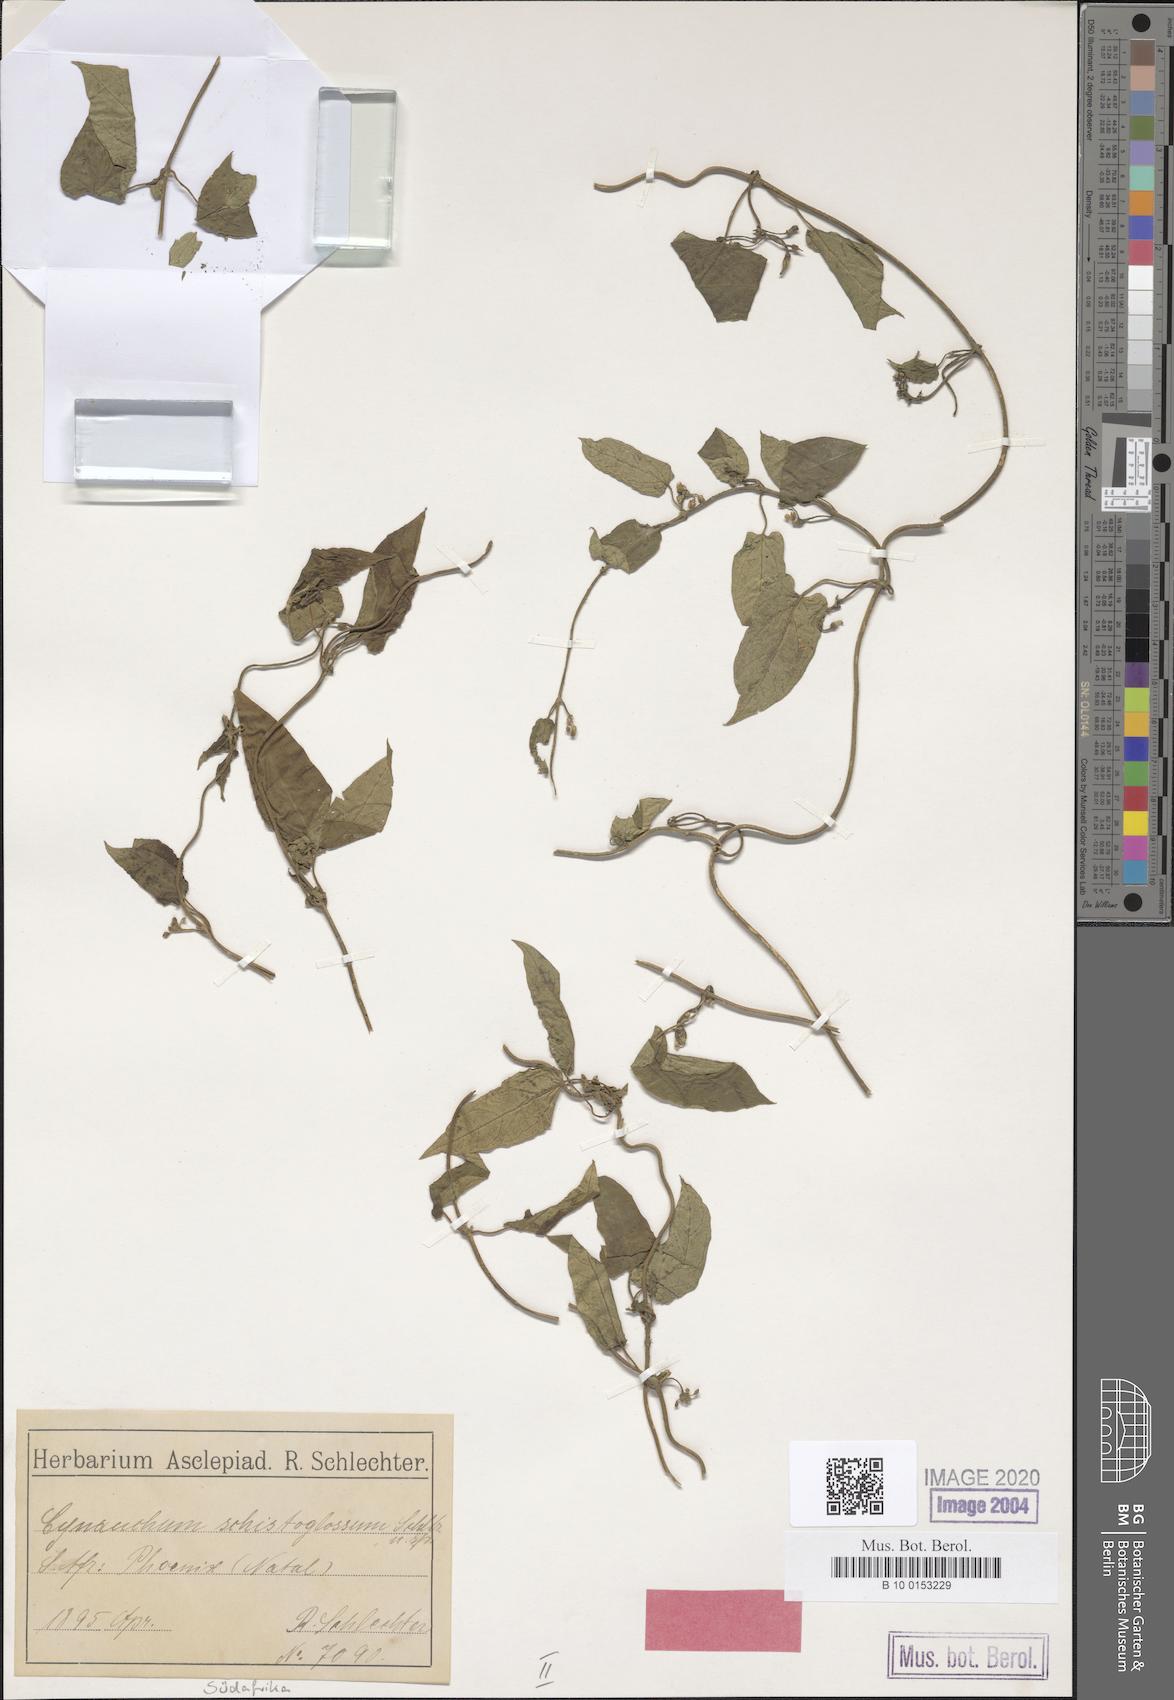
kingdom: Plantae
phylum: Tracheophyta
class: Magnoliopsida
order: Gentianales
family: Apocynaceae
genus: Cynanchum
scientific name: Cynanchum schistoglossum
